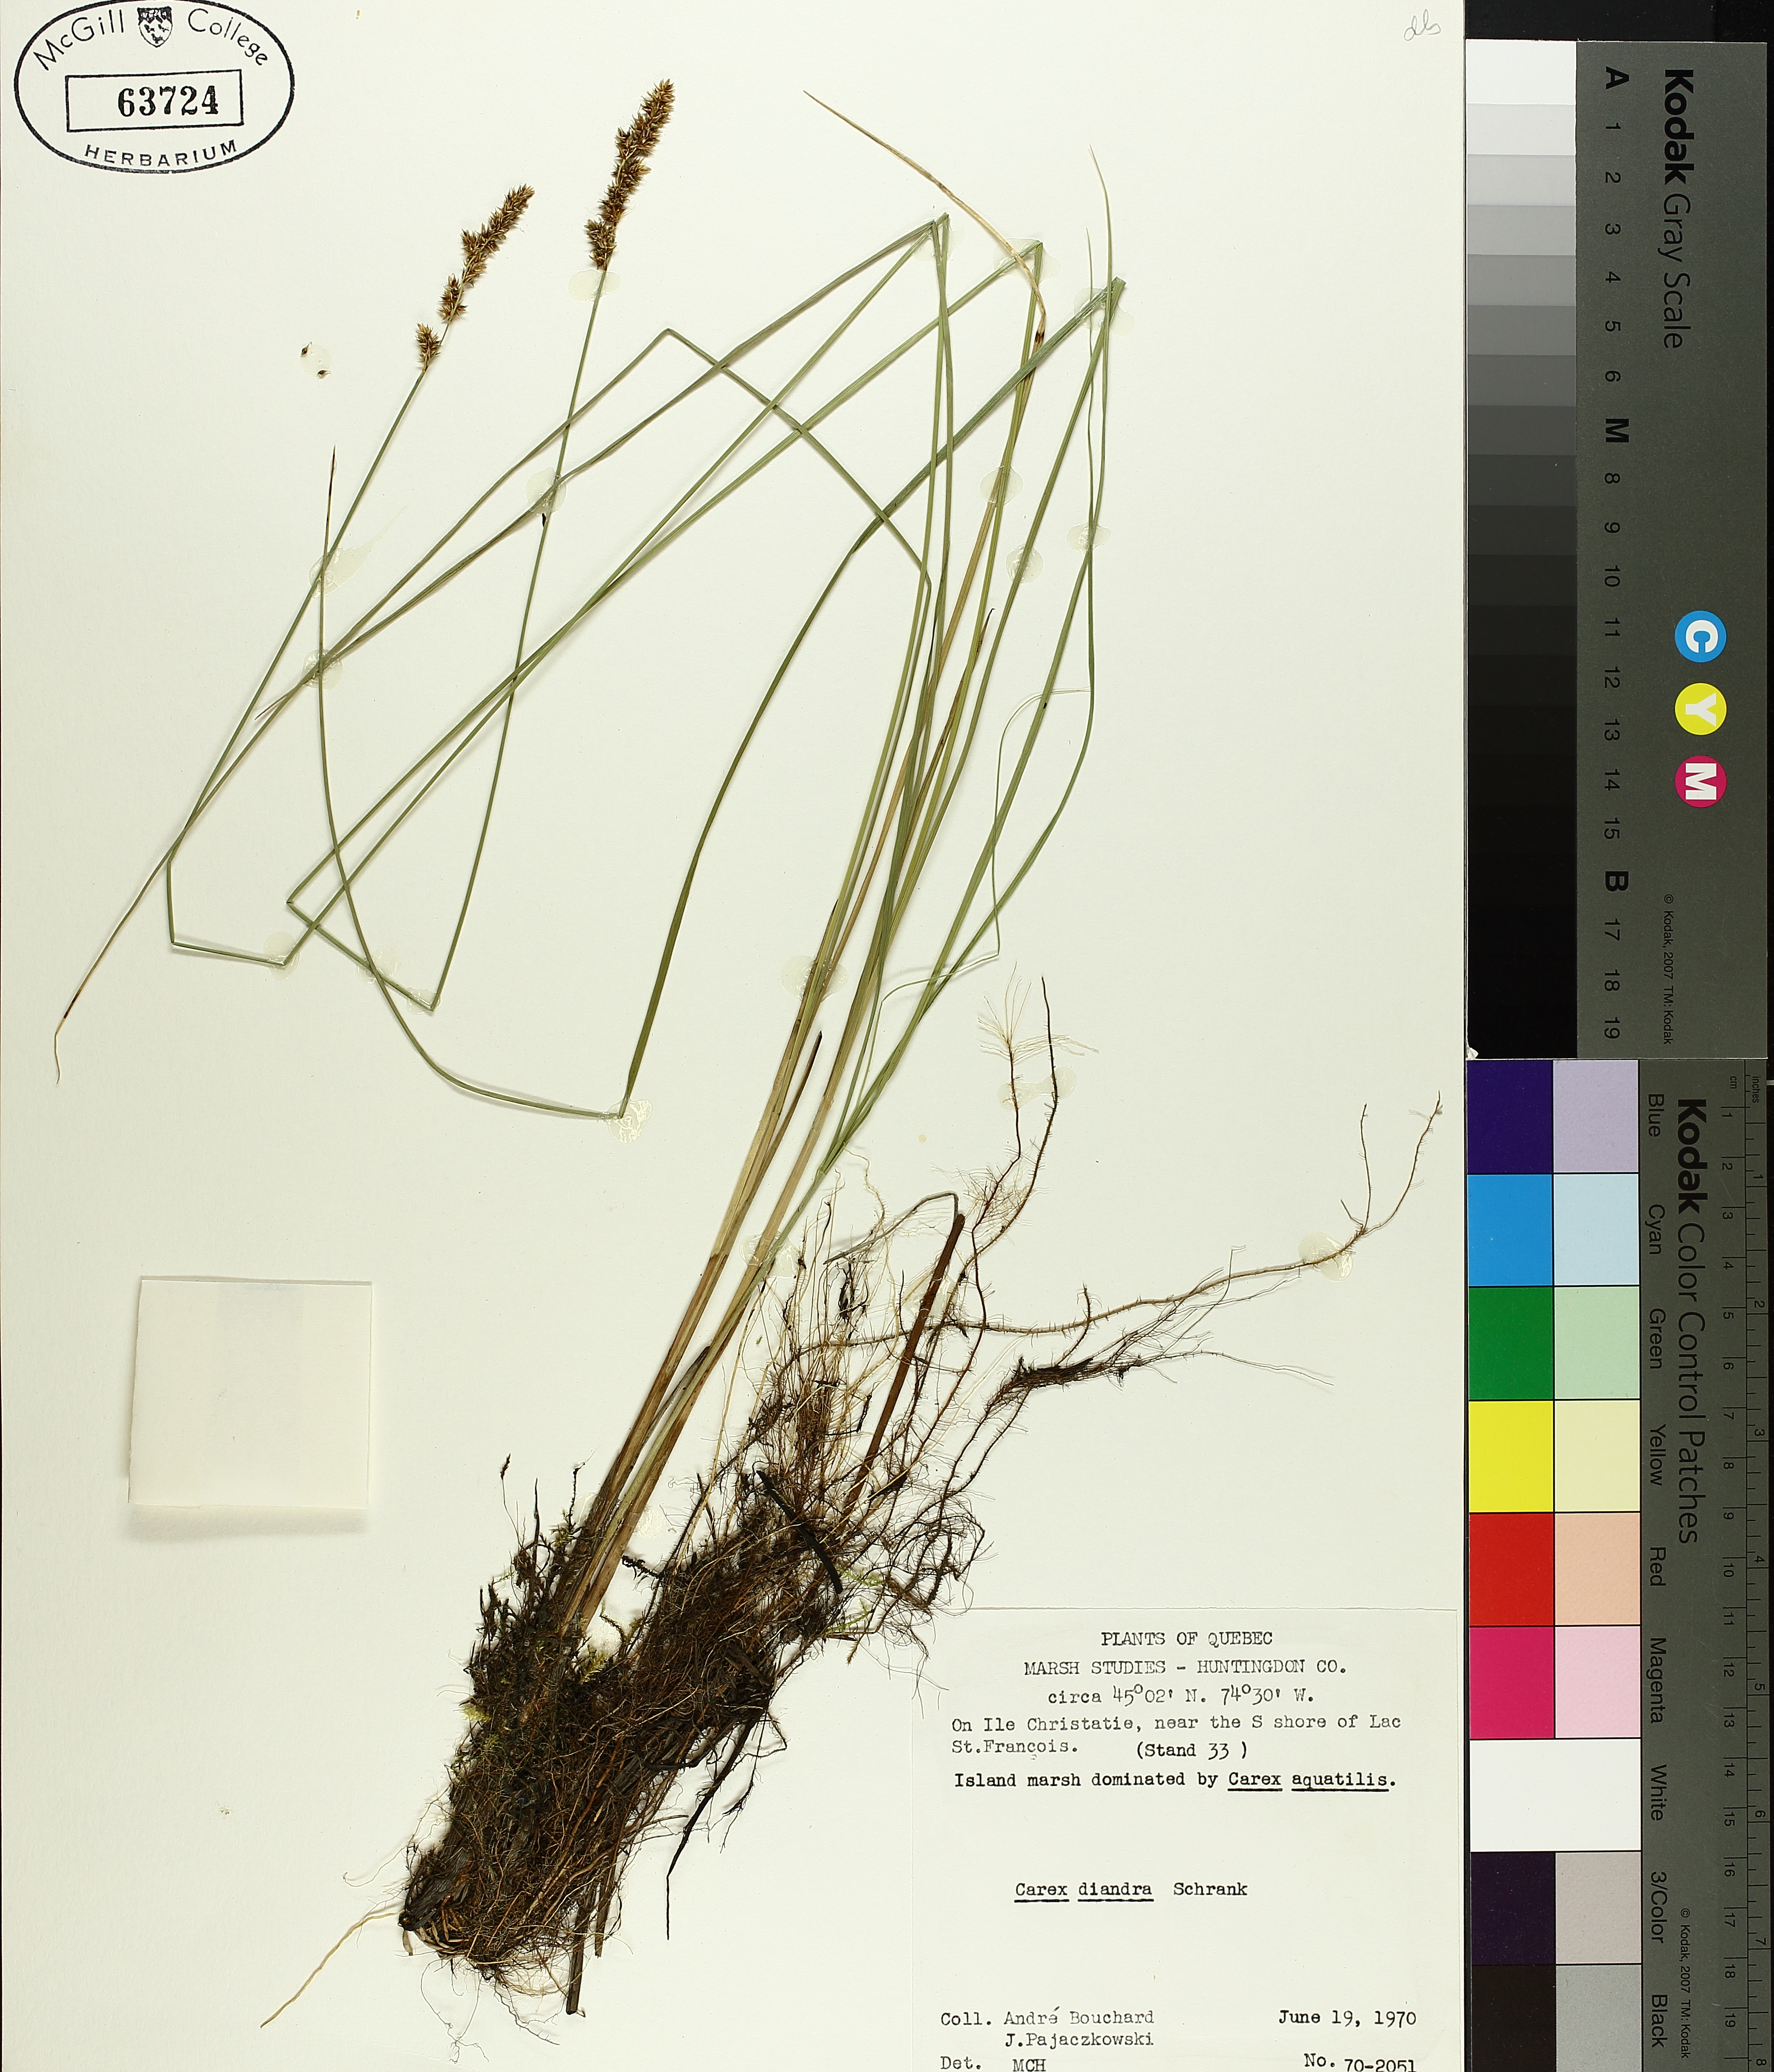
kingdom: Plantae
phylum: Tracheophyta
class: Liliopsida
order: Poales
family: Cyperaceae
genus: Carex
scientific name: Carex diandra
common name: Lesser tussock-sedge
